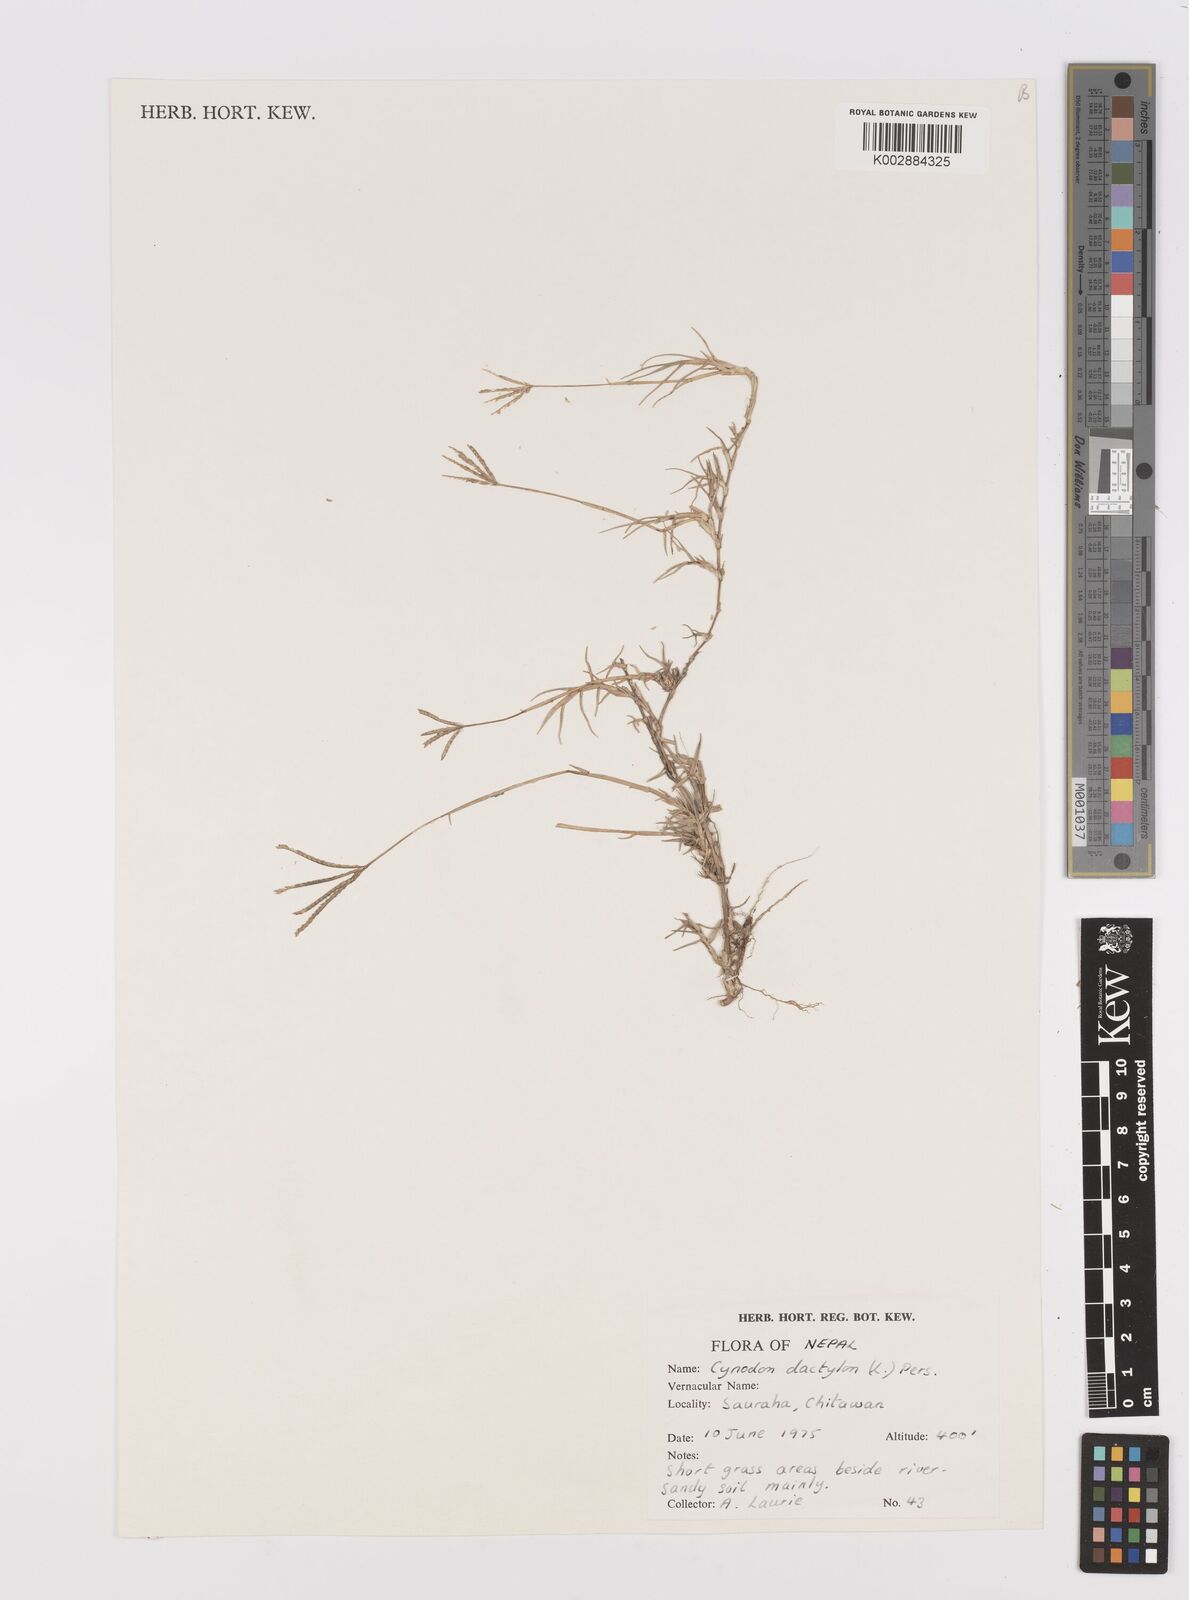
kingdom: Plantae
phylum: Tracheophyta
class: Liliopsida
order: Poales
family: Poaceae
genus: Cynodon
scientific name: Cynodon dactylon
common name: Bermuda grass
